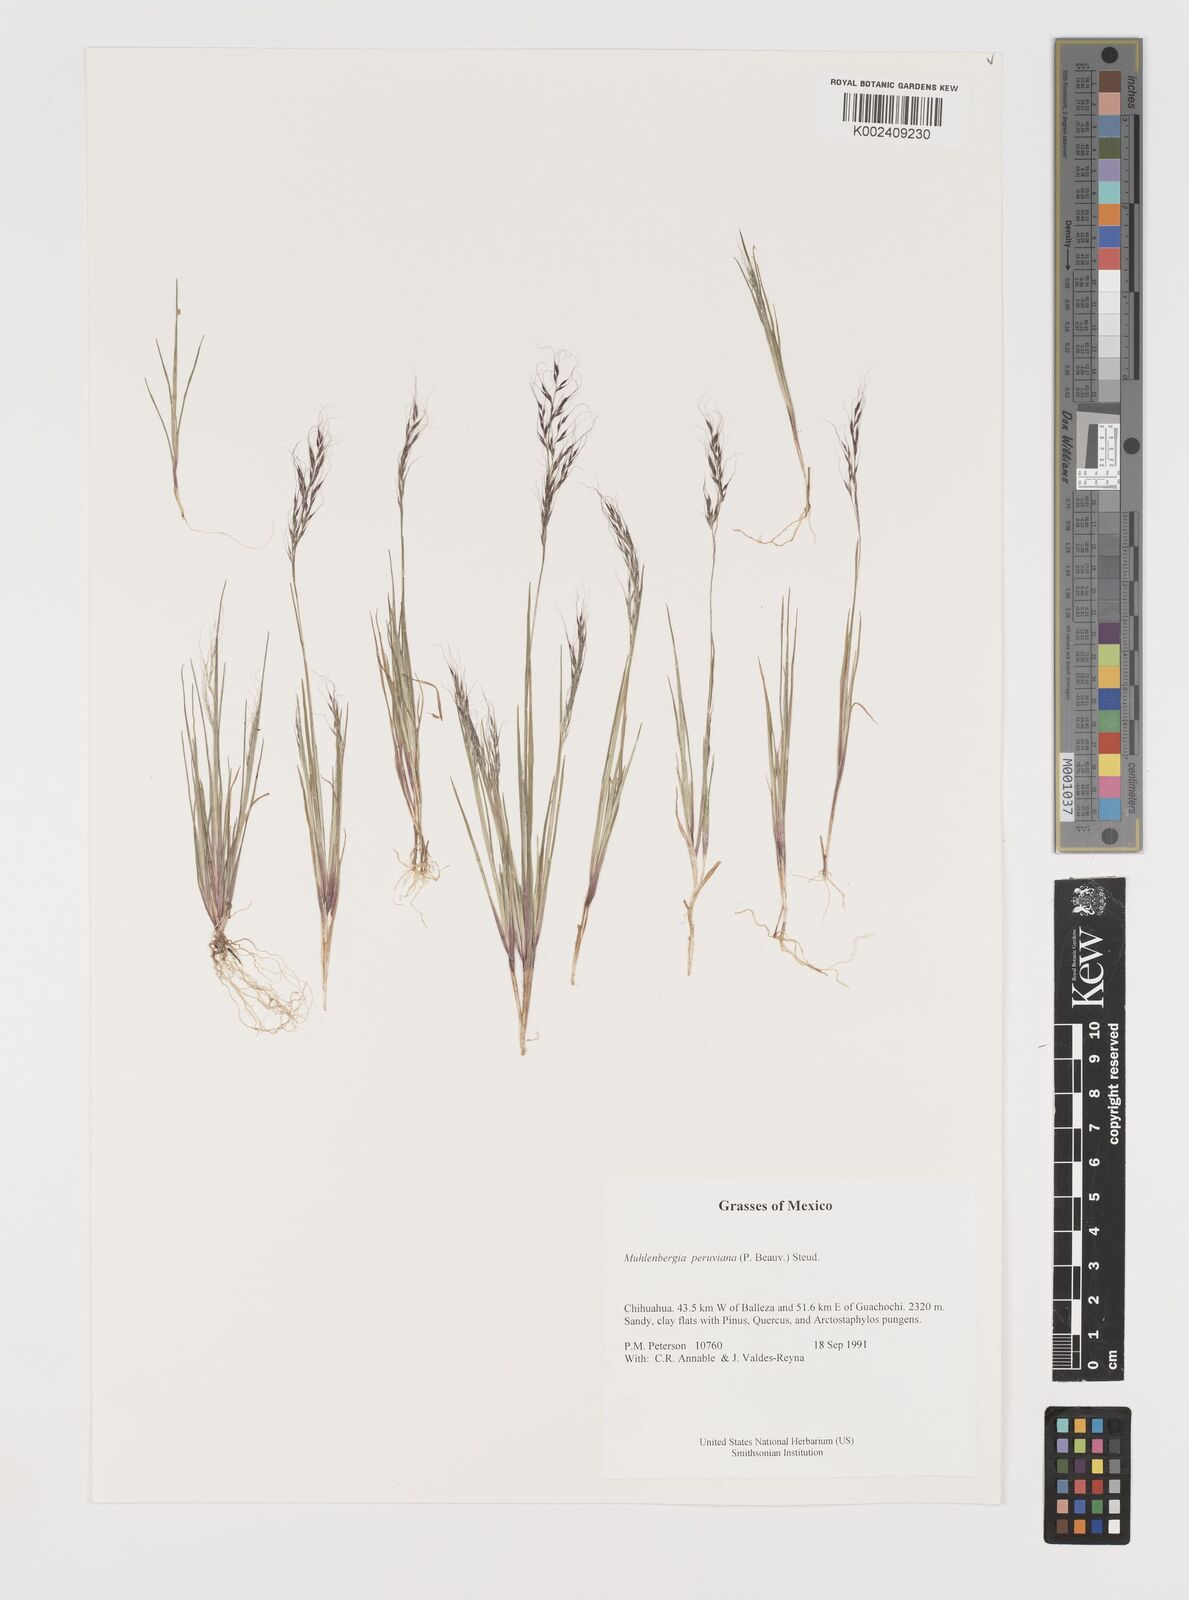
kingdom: Plantae
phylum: Tracheophyta
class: Liliopsida
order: Poales
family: Poaceae
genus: Muhlenbergia
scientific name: Muhlenbergia peruviana
